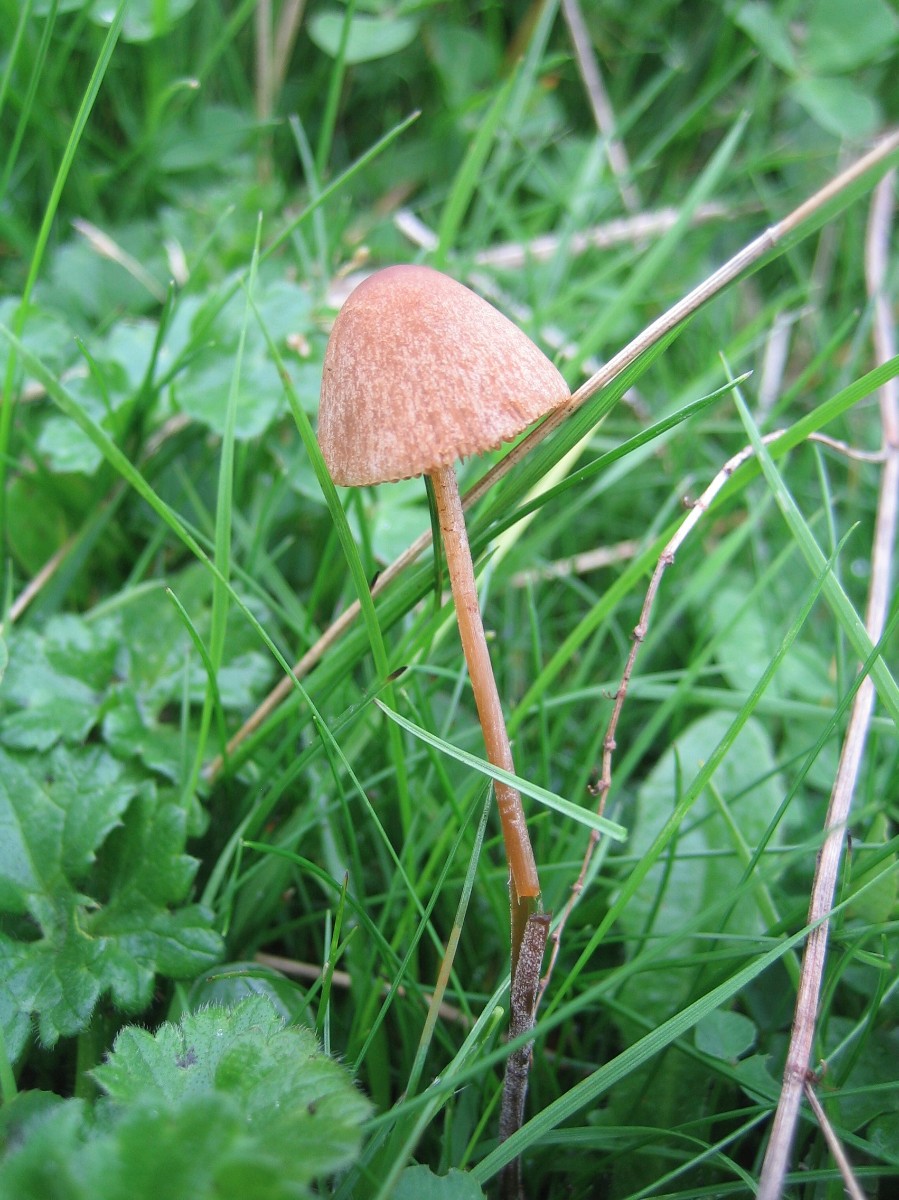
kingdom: Fungi
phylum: Basidiomycota
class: Agaricomycetes
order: Agaricales
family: Bolbitiaceae
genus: Conocybe
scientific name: Conocybe
